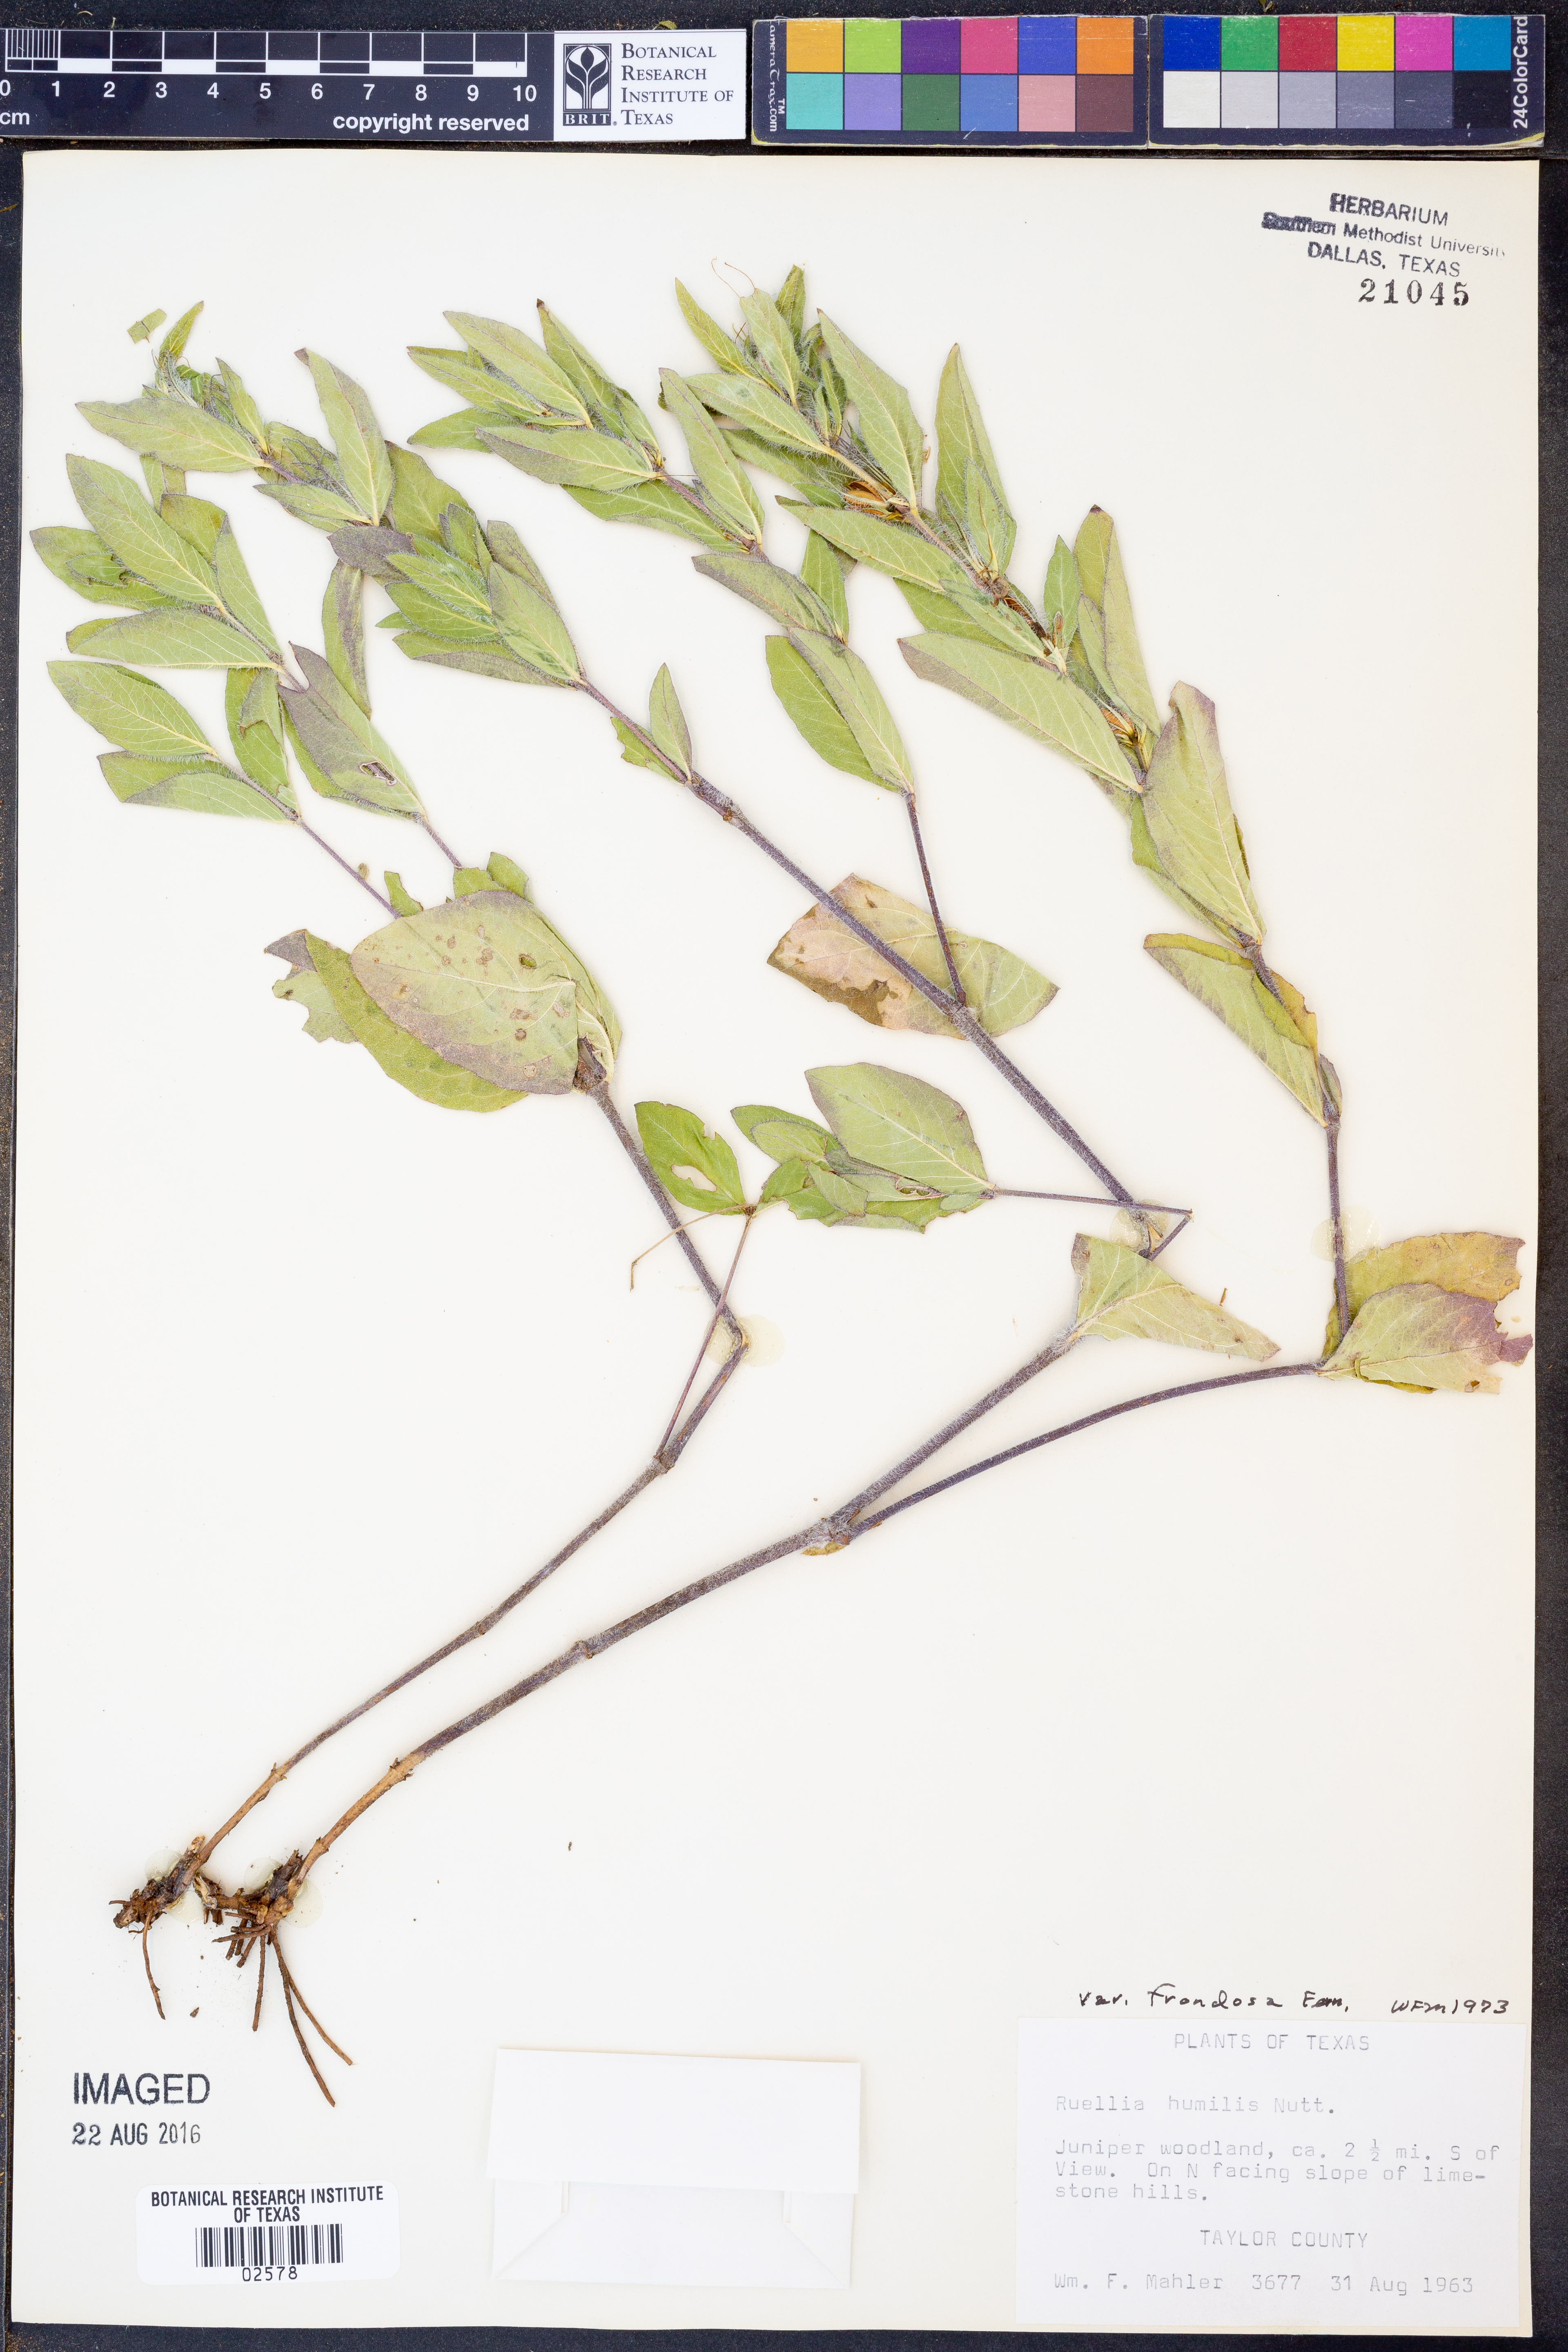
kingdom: Plantae
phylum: Tracheophyta
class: Magnoliopsida
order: Lamiales
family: Acanthaceae
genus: Ruellia
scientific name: Ruellia humilis
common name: Fringe-leaf ruellia
